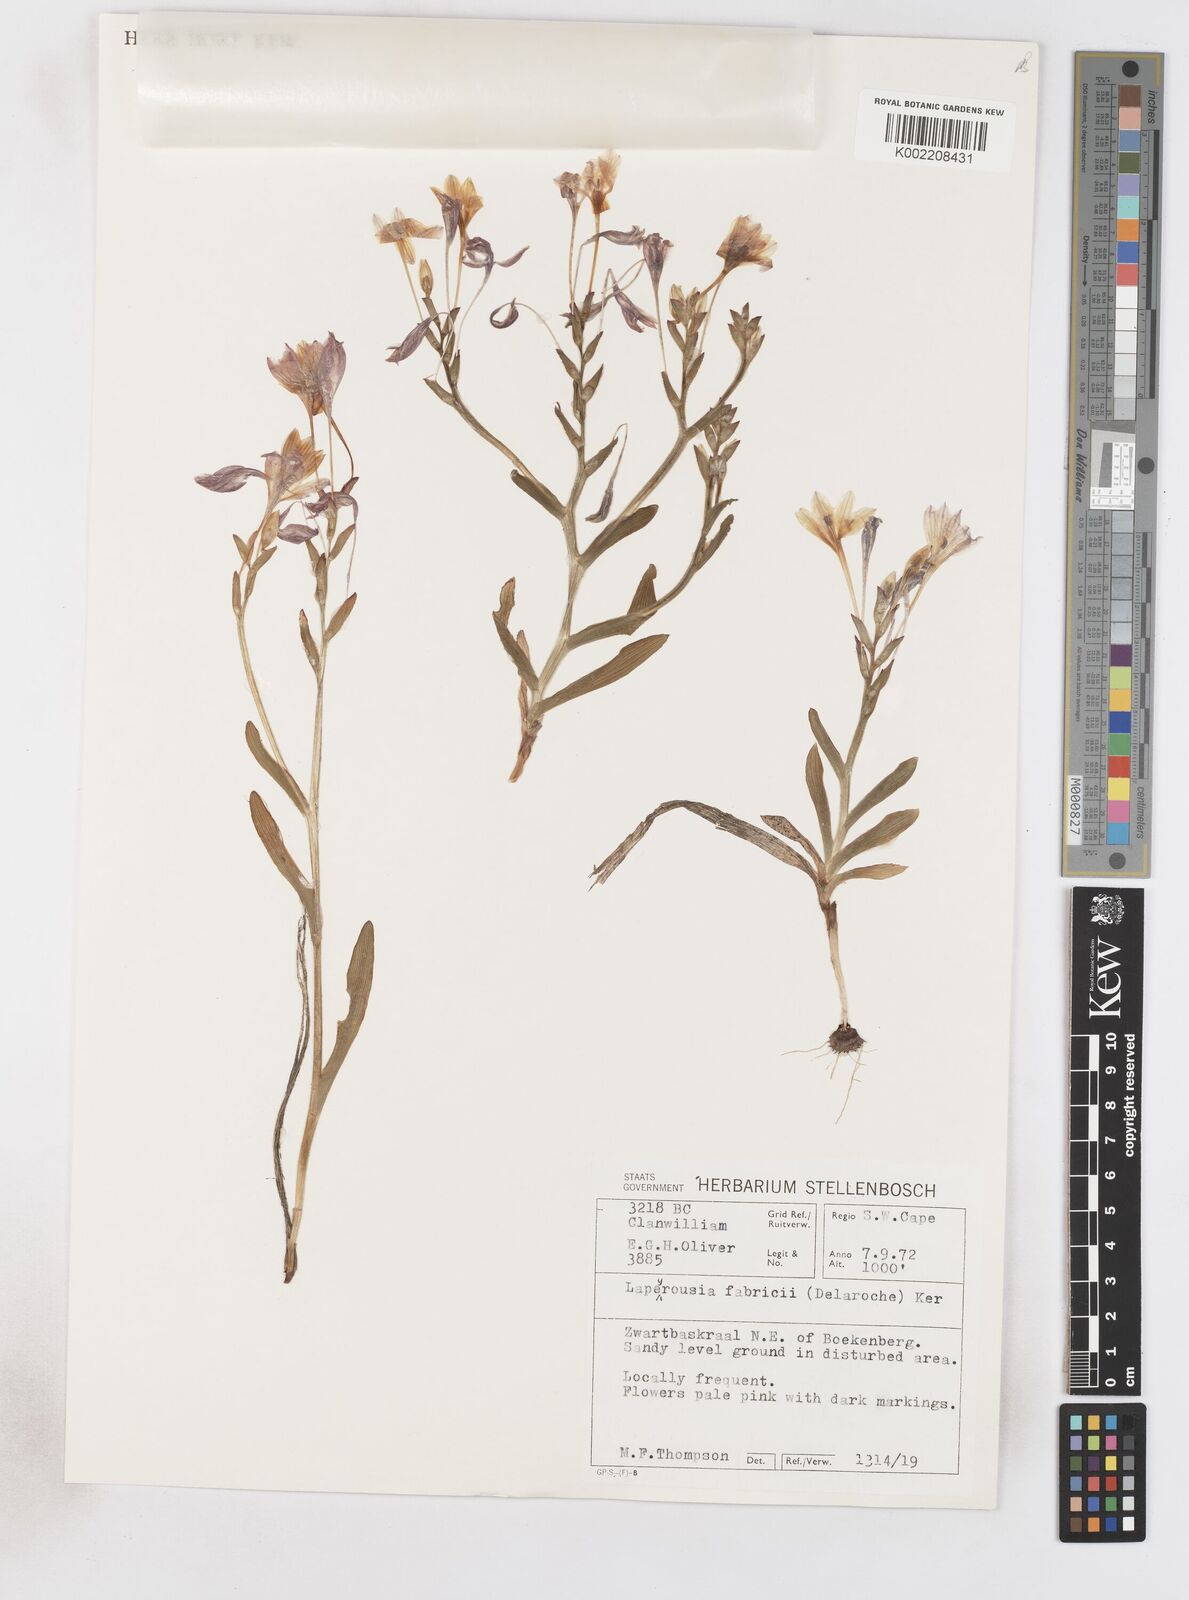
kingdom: Plantae
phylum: Tracheophyta
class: Liliopsida
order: Asparagales
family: Iridaceae
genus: Lapeirousia
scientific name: Lapeirousia fabricii
